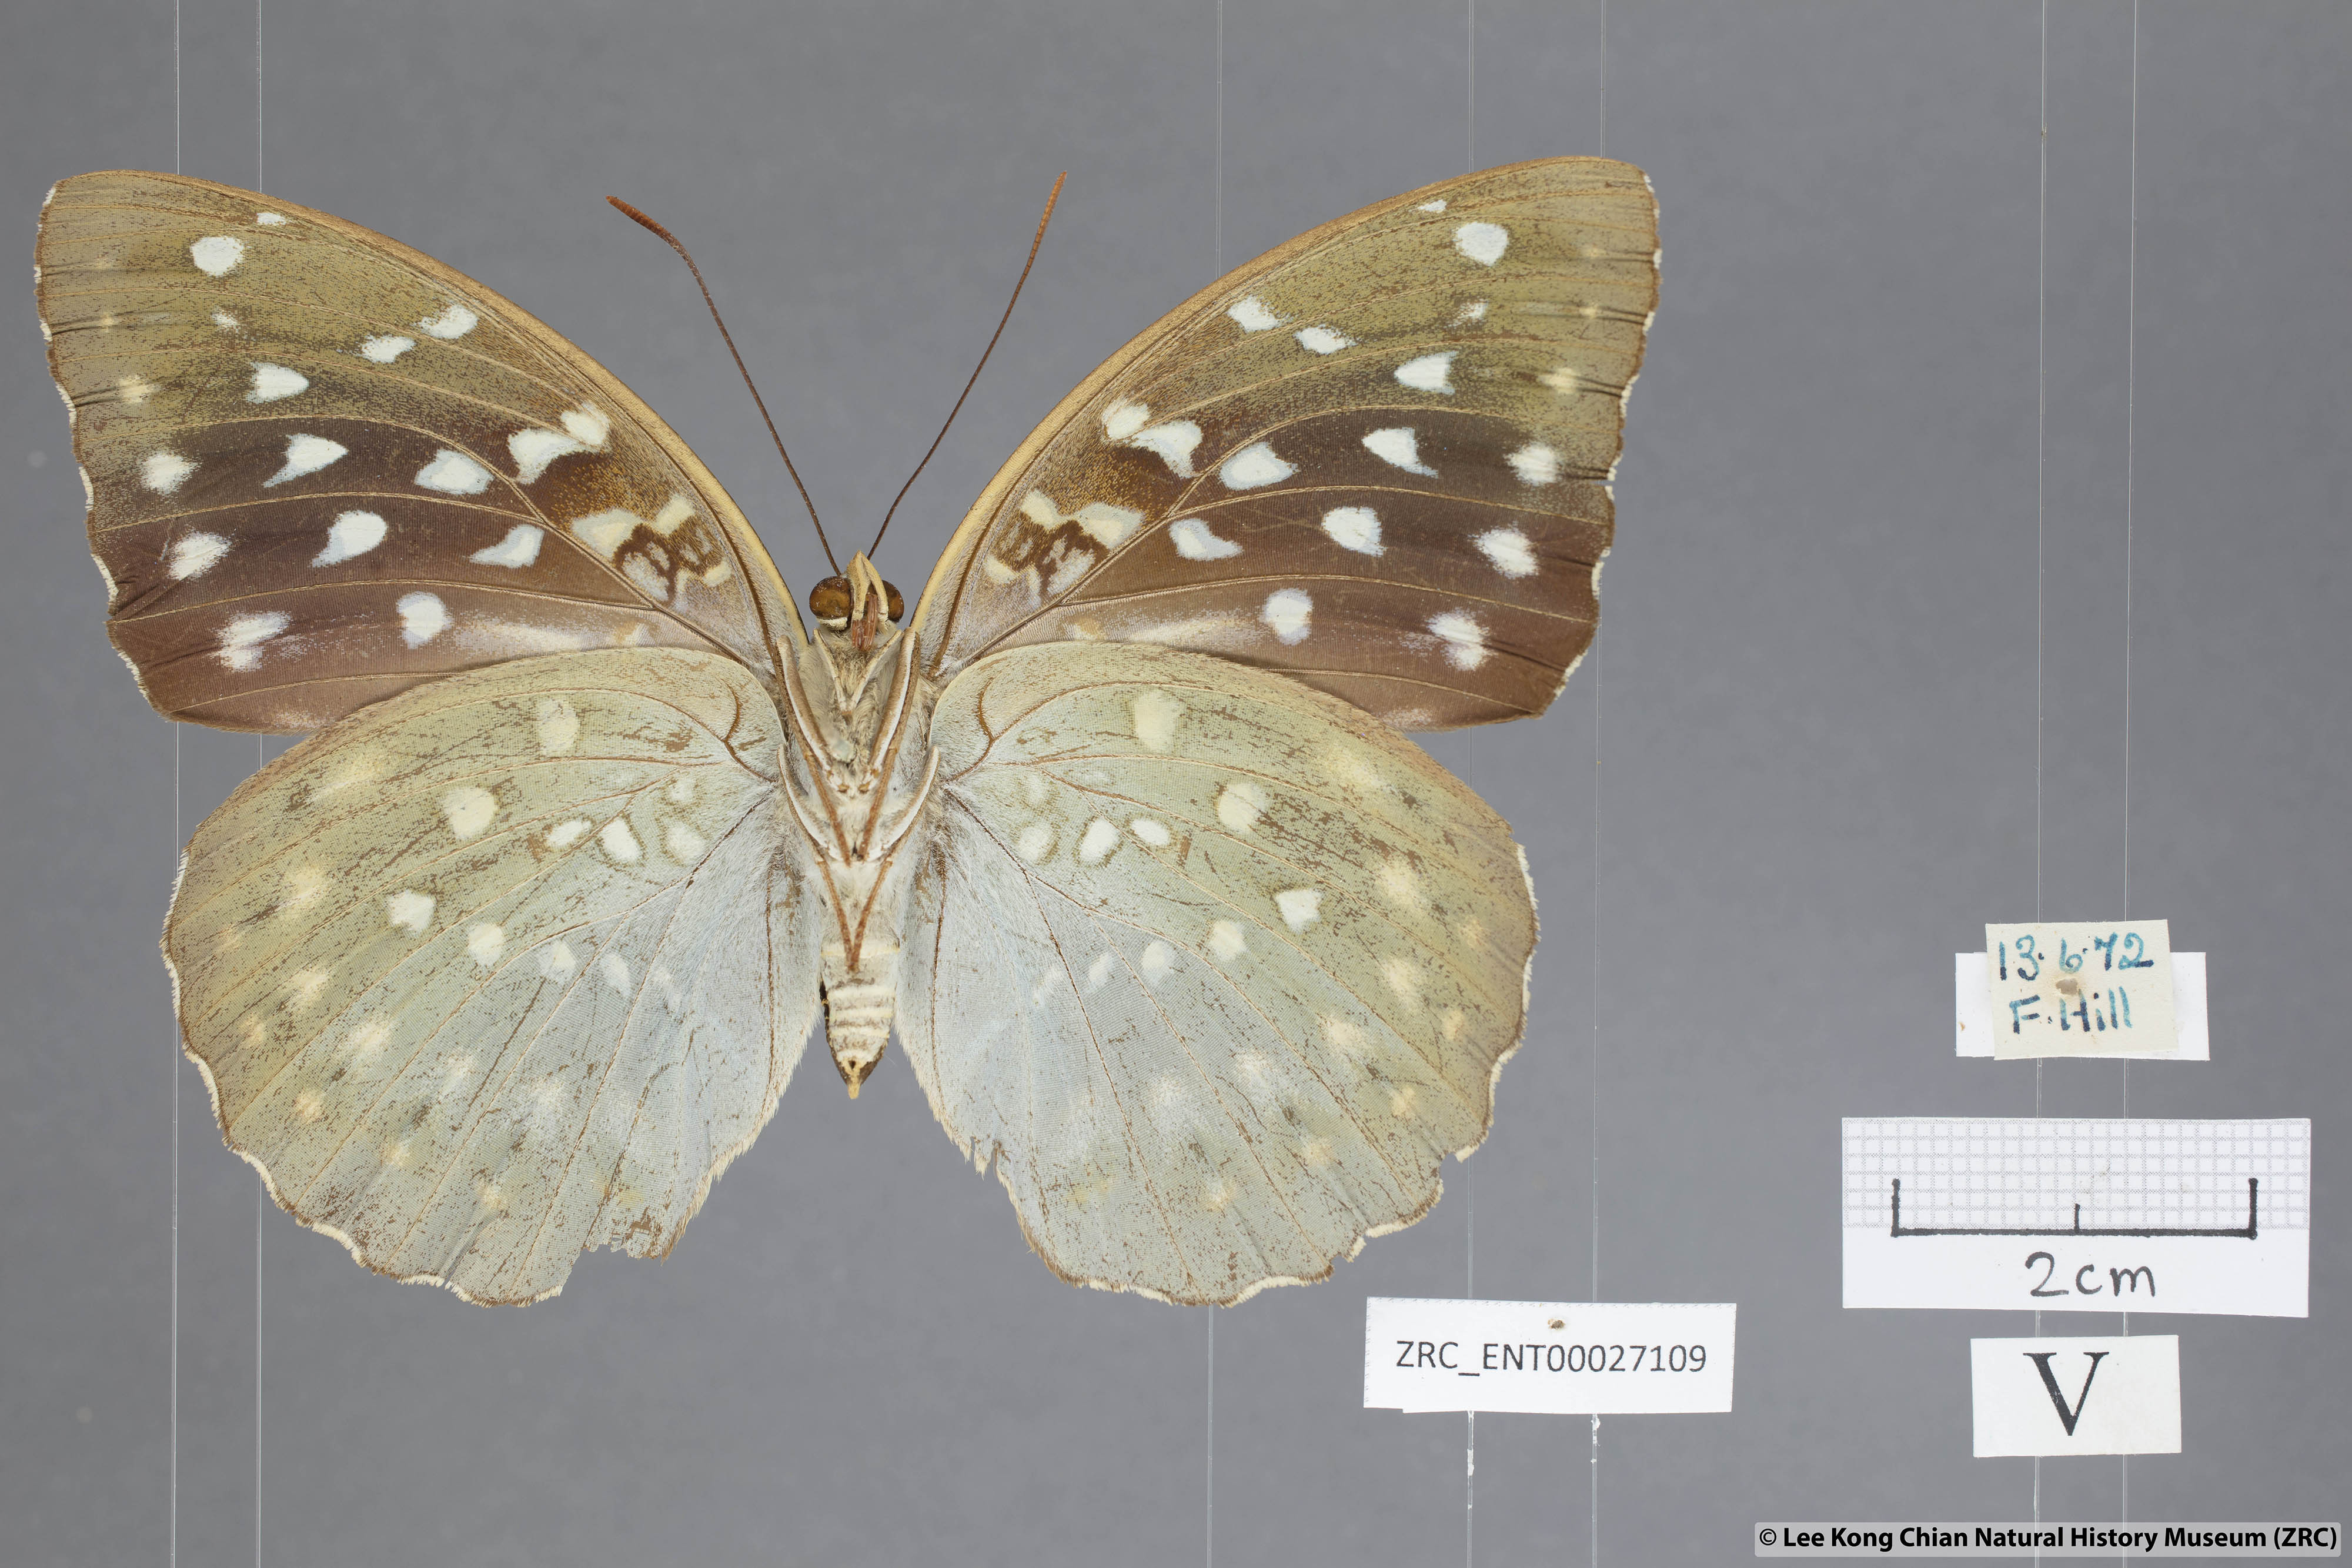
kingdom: Animalia
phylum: Arthropoda
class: Insecta
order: Lepidoptera
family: Nymphalidae
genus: Lexias
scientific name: Lexias dirtea
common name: Black-tipped archduke
